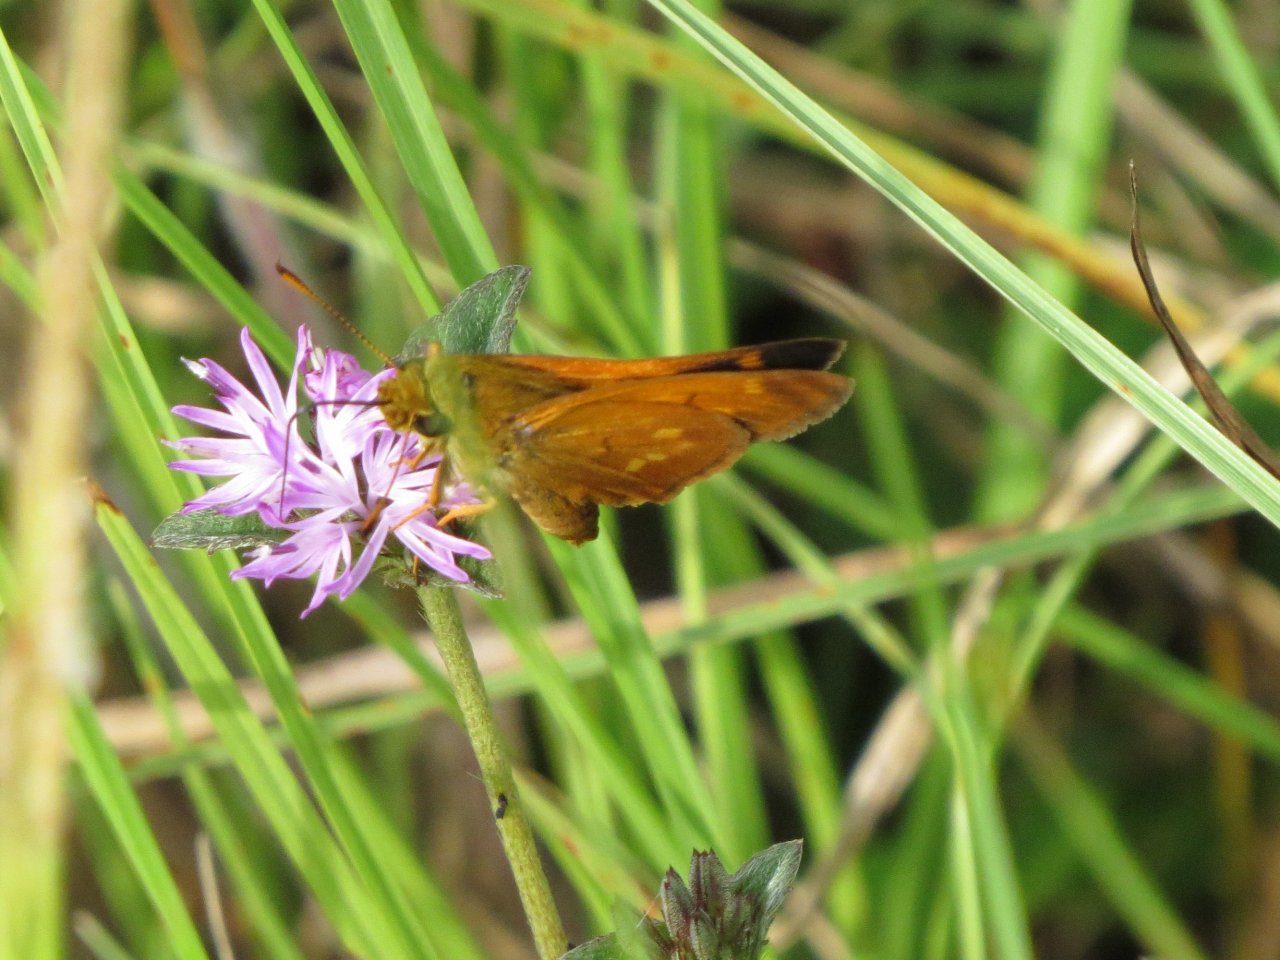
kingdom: Animalia
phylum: Arthropoda
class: Insecta
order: Lepidoptera
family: Hesperiidae
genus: Poanes
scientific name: Poanes yehl
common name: Yehl Skipper
